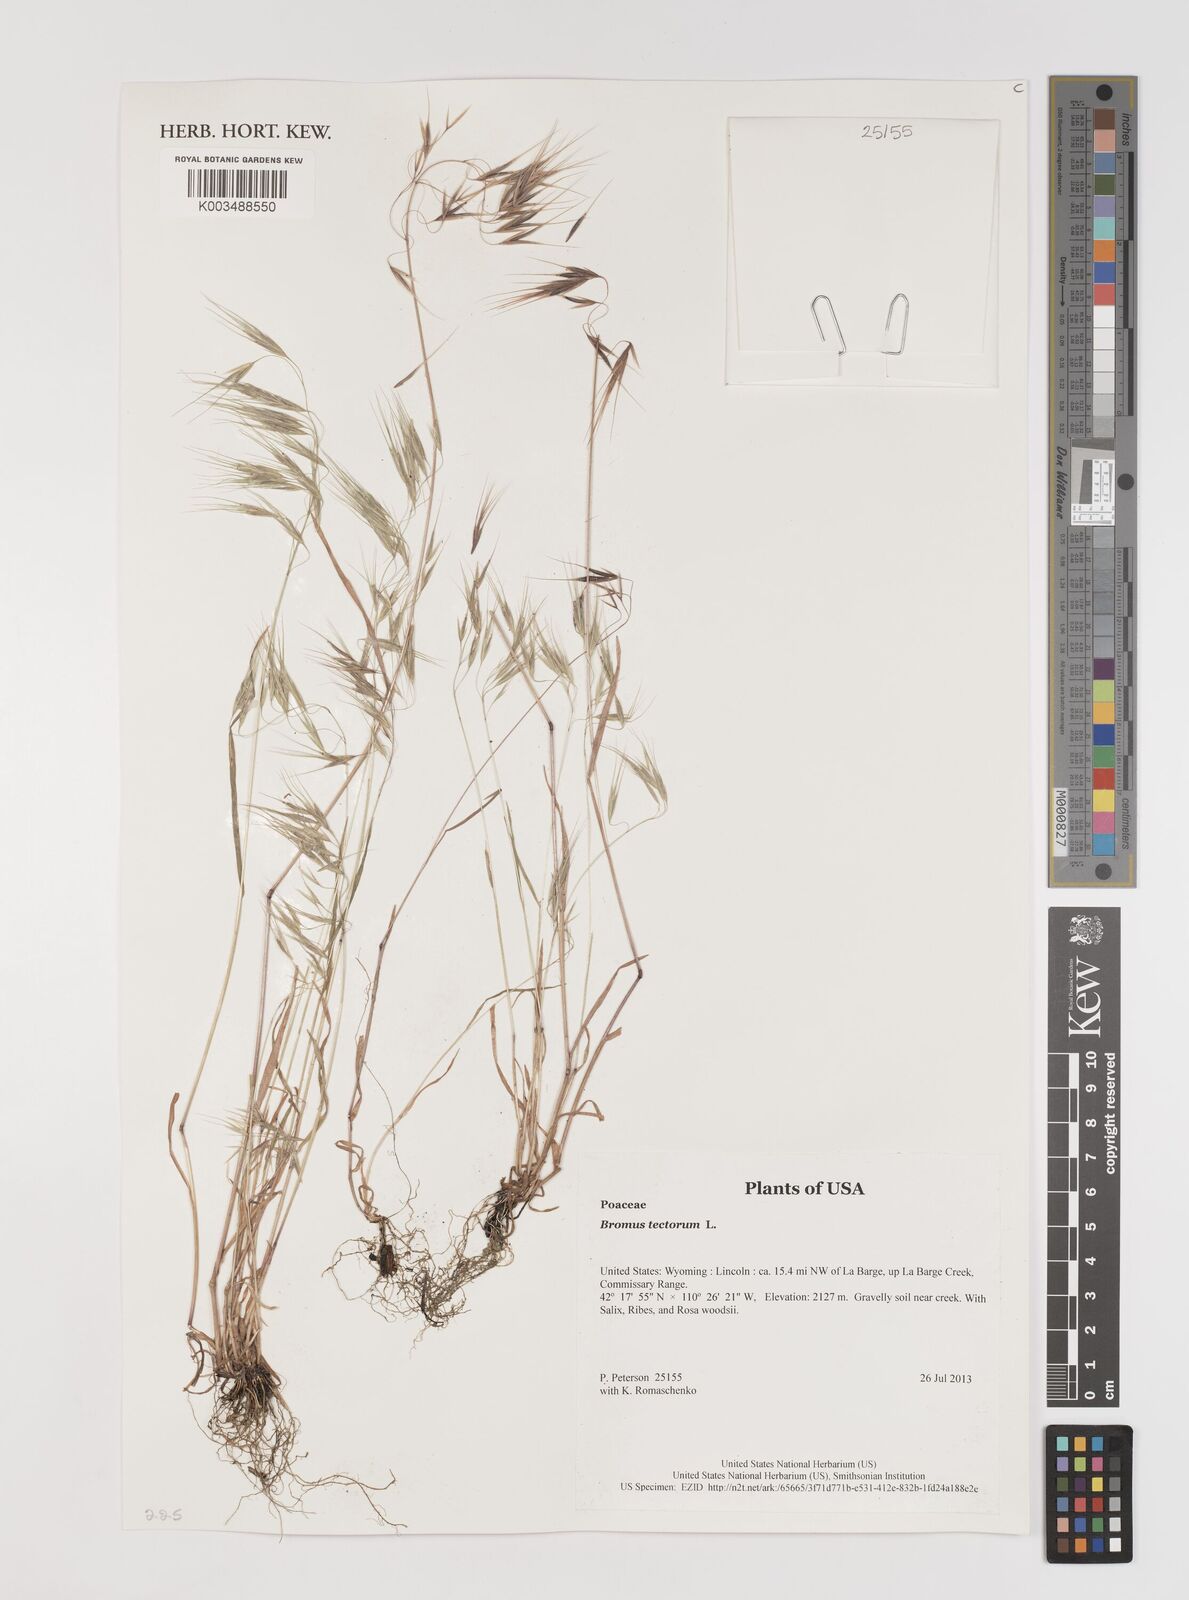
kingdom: Plantae
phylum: Tracheophyta
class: Liliopsida
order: Poales
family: Poaceae
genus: Bromus
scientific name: Bromus tectorum
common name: Cheatgrass
